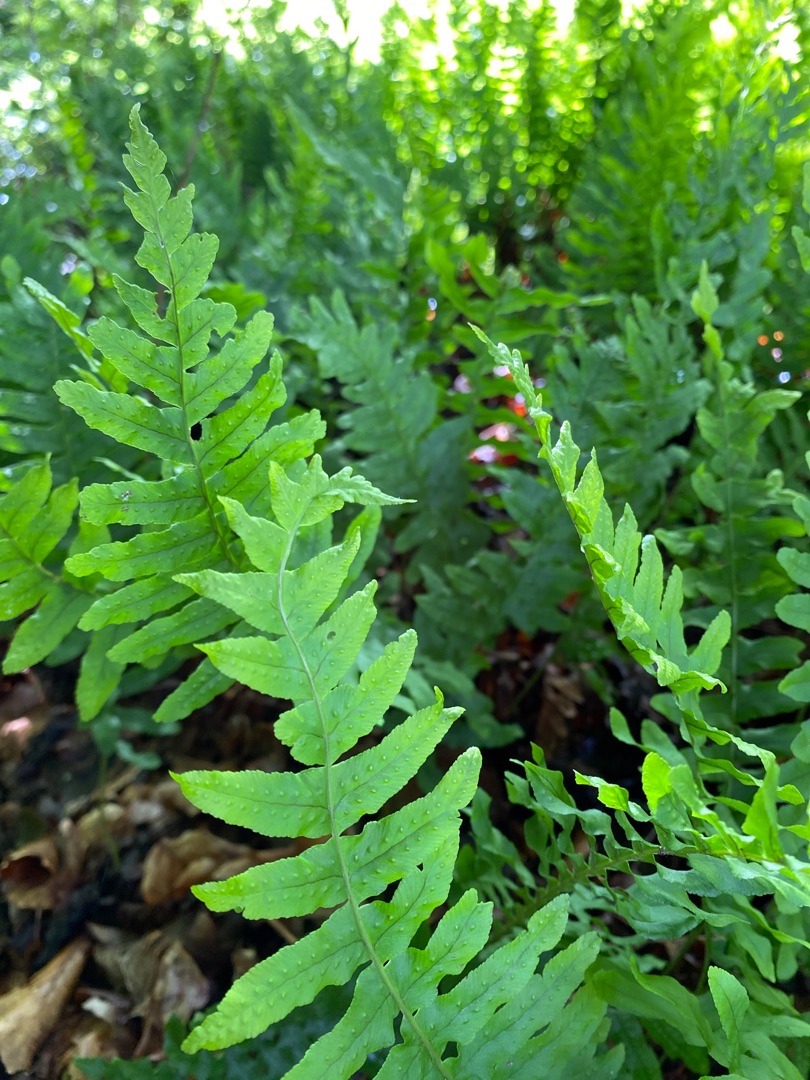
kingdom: Plantae
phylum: Tracheophyta
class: Polypodiopsida
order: Polypodiales
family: Polypodiaceae
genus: Polypodium
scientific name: Polypodium vulgare
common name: Almindelig engelsød
